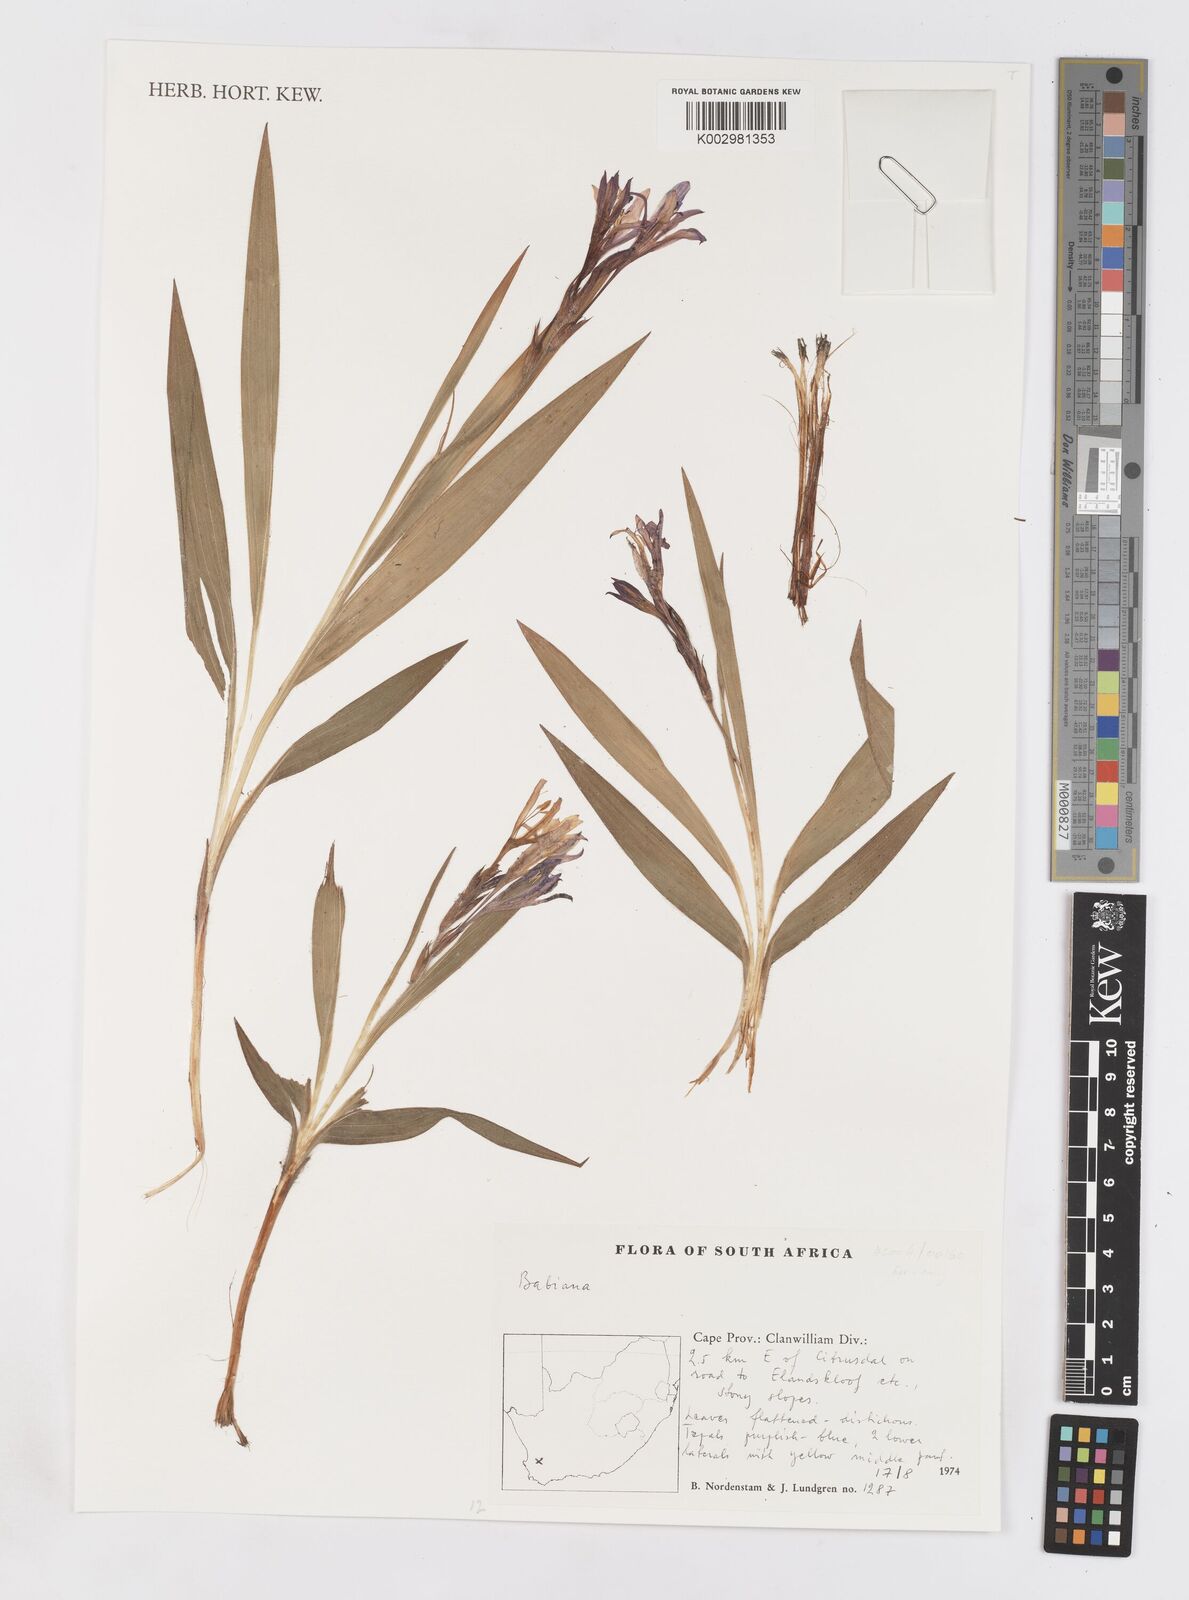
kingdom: Plantae
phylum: Tracheophyta
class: Liliopsida
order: Asparagales
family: Iridaceae
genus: Babiana
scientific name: Babiana
